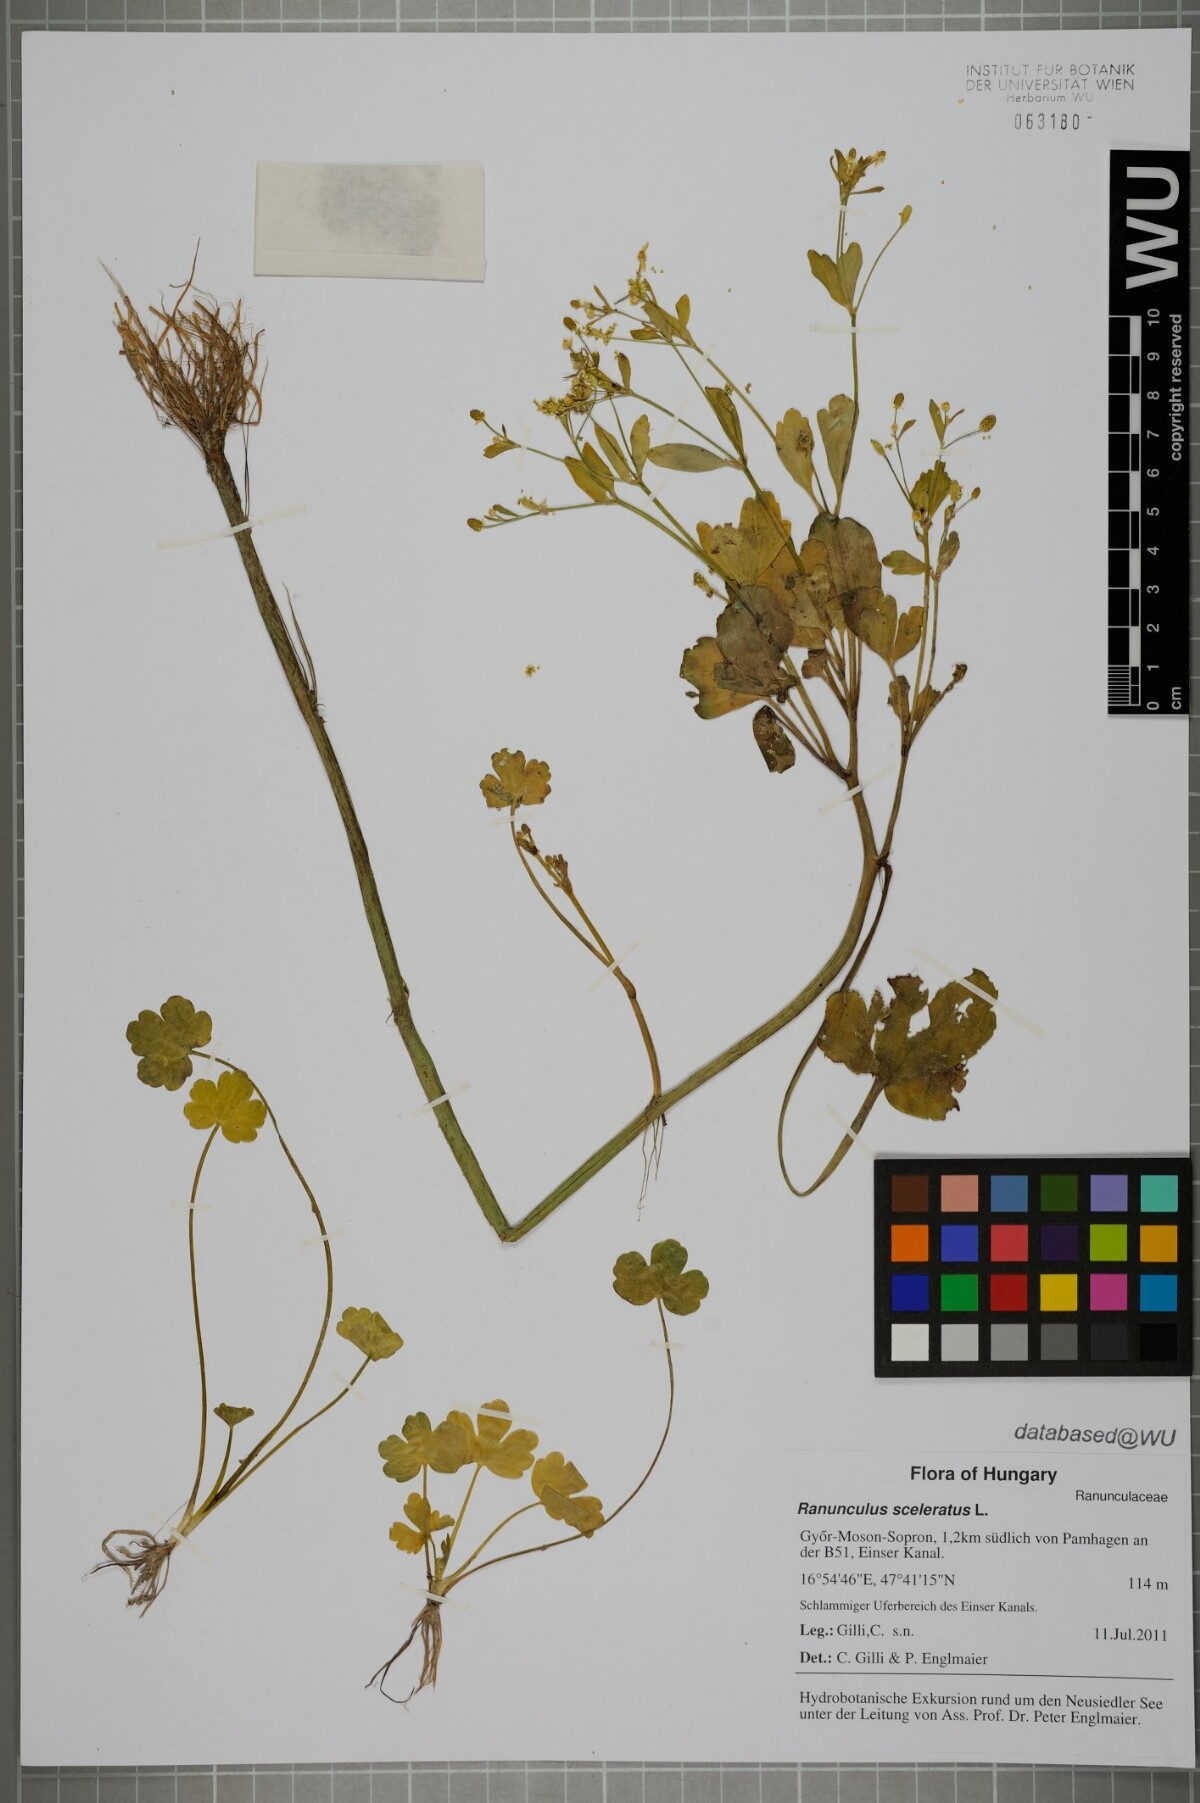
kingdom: Plantae
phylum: Tracheophyta
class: Magnoliopsida
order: Ranunculales
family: Ranunculaceae
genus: Ranunculus
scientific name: Ranunculus sceleratus
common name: Celery-leaved buttercup
